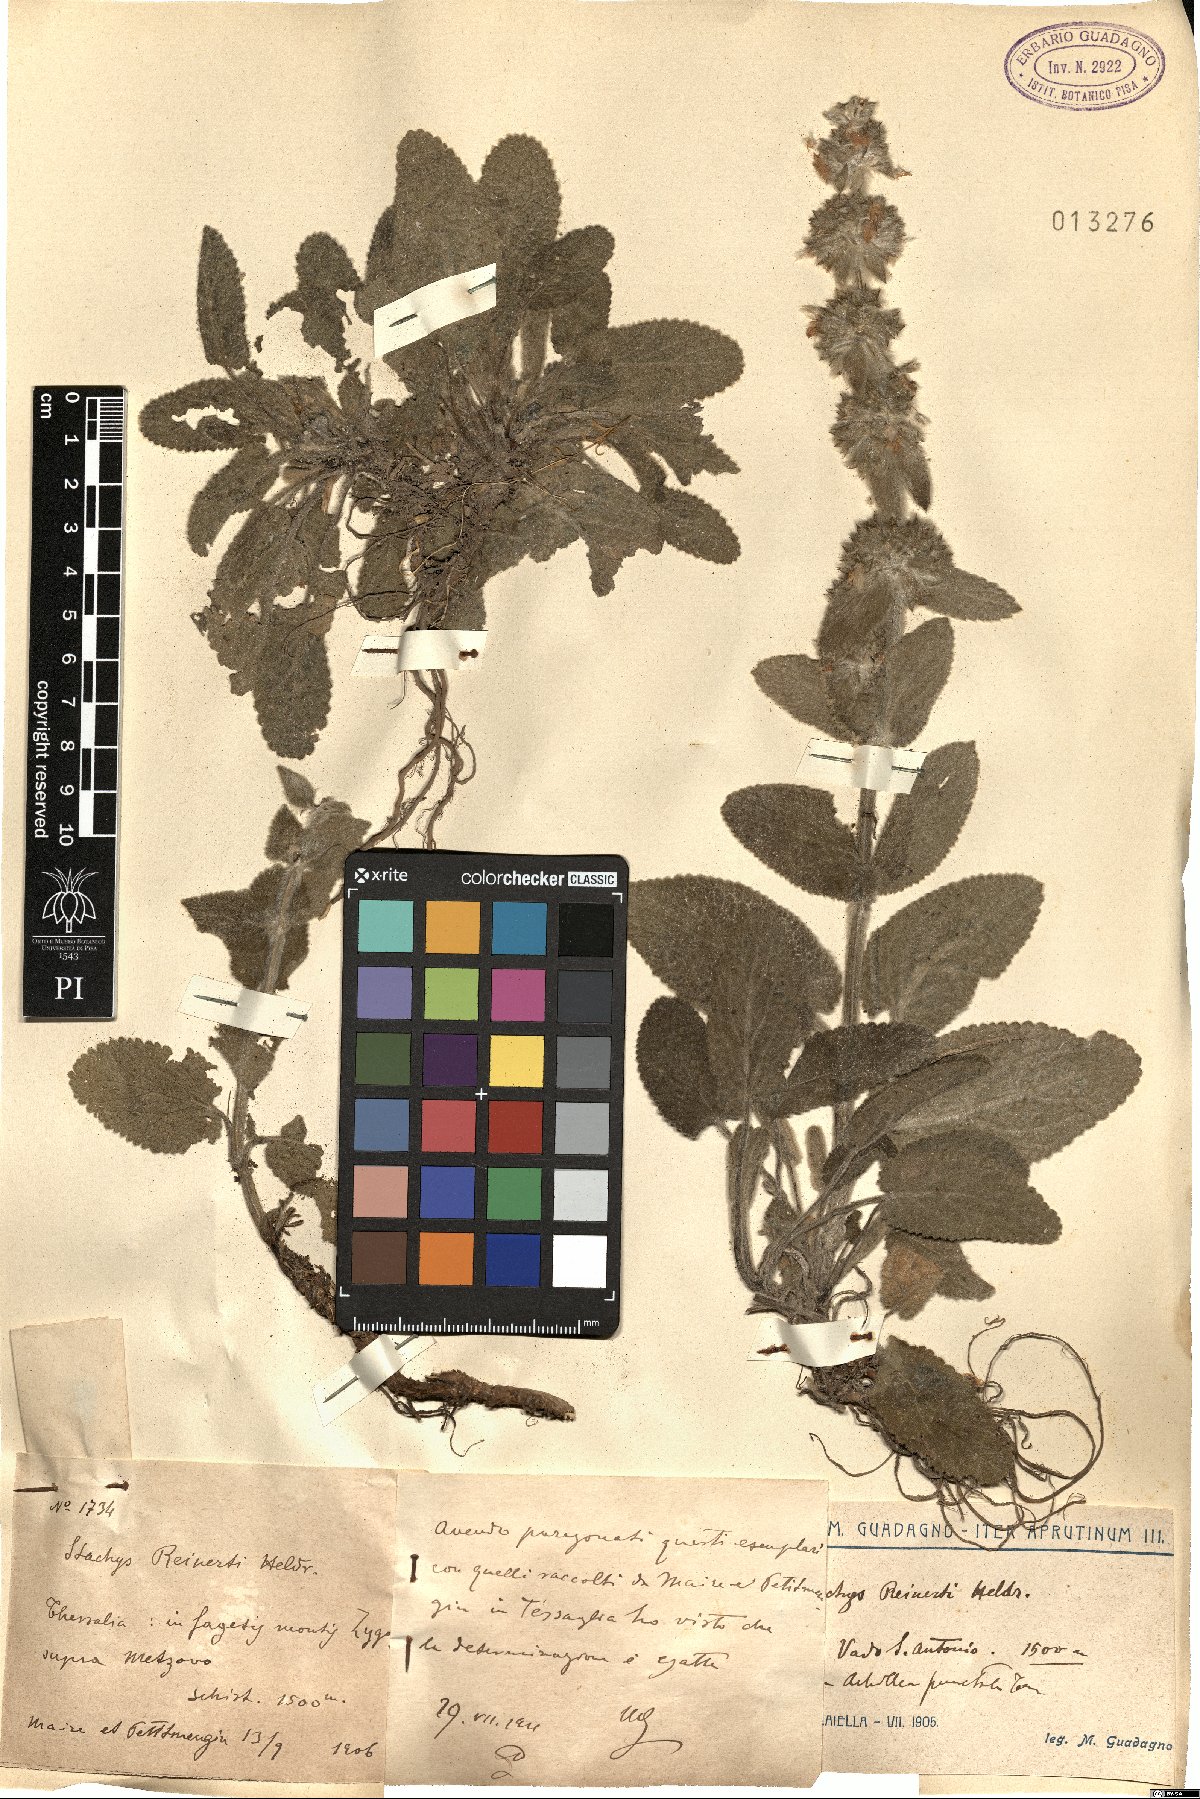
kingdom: Plantae
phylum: Tracheophyta
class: Magnoliopsida
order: Lamiales
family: Lamiaceae
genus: Stachys
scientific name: Stachys tymphaea
